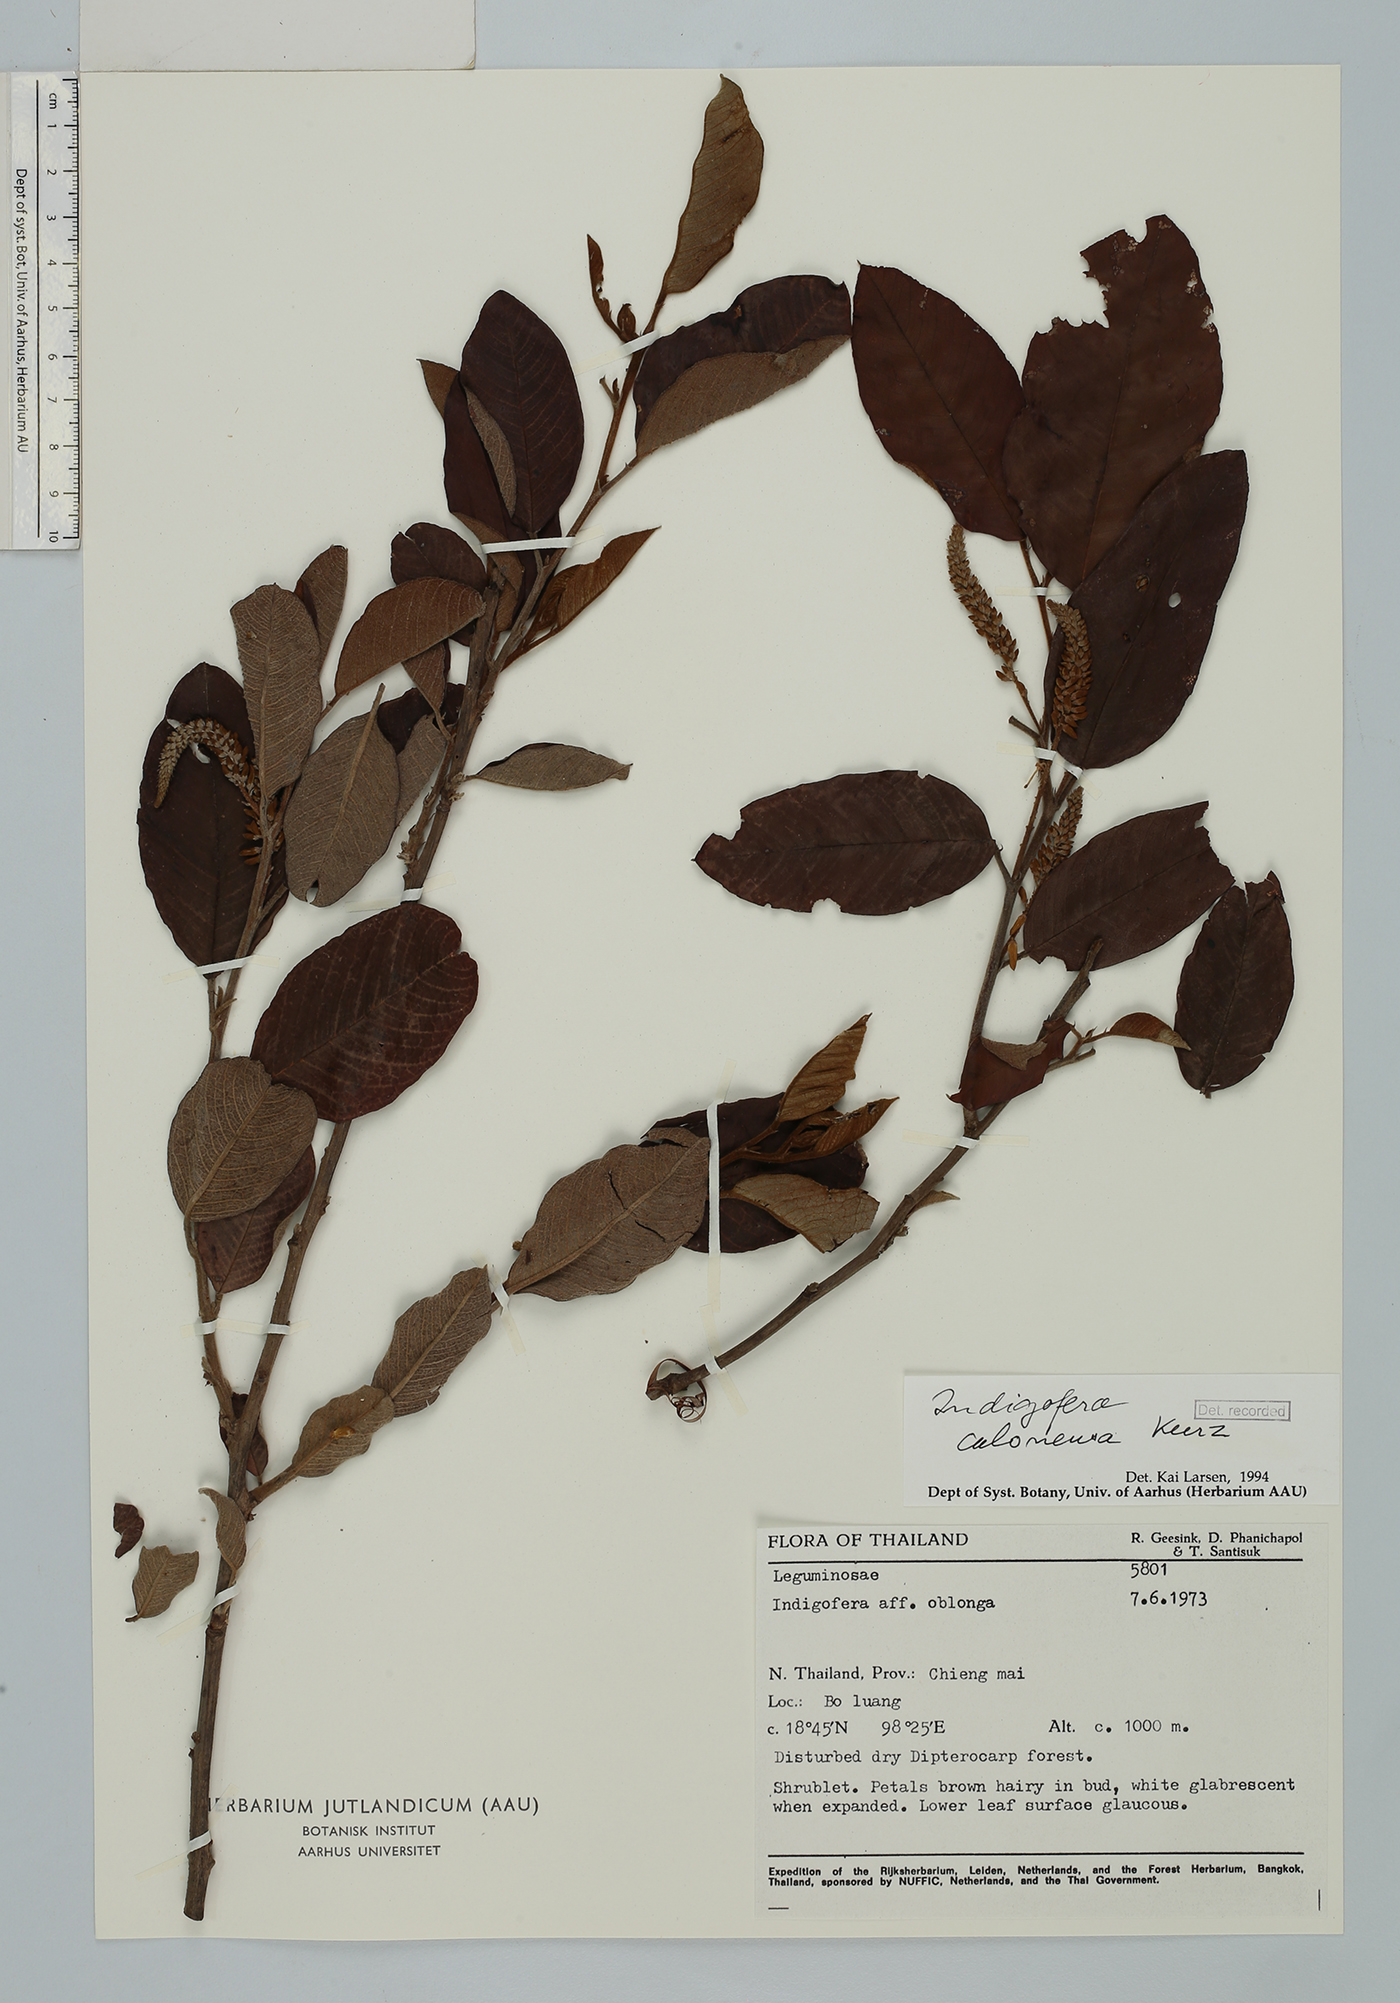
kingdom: Plantae
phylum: Tracheophyta
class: Magnoliopsida
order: Fabales
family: Fabaceae
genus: Indigofera
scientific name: Indigofera caloneura
